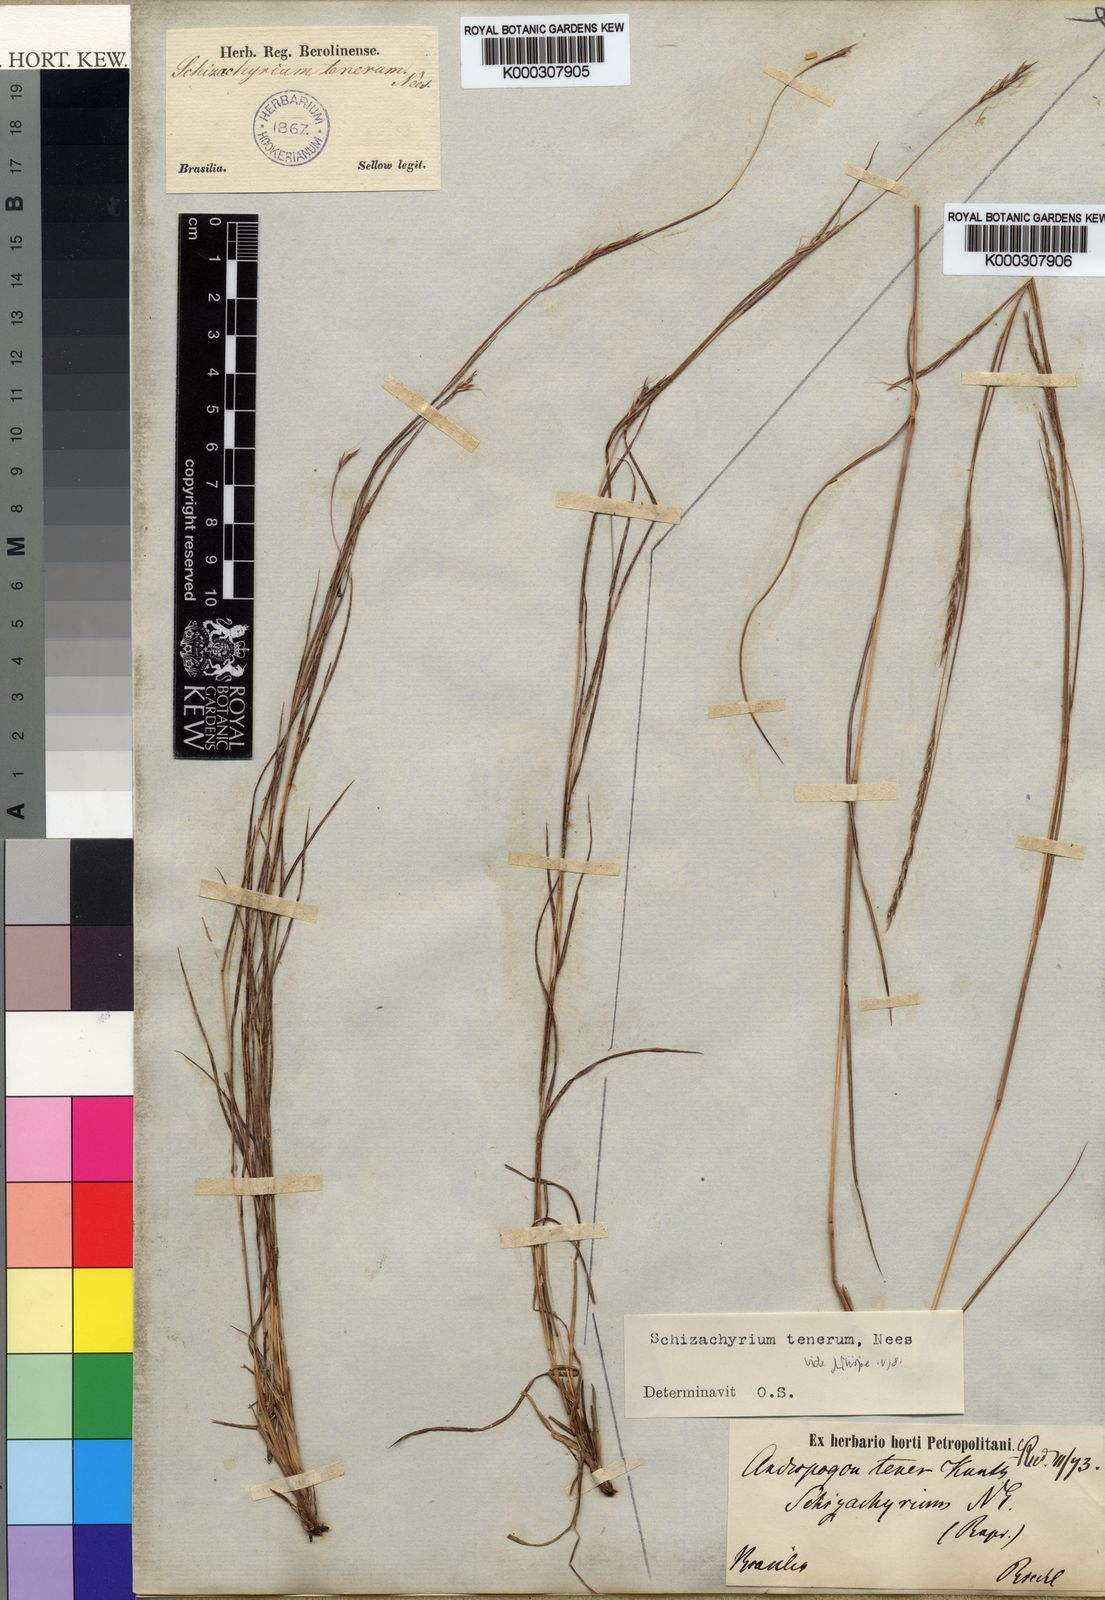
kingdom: Plantae
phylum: Tracheophyta
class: Liliopsida
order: Poales
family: Poaceae
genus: Andropogon
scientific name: Andropogon tener
